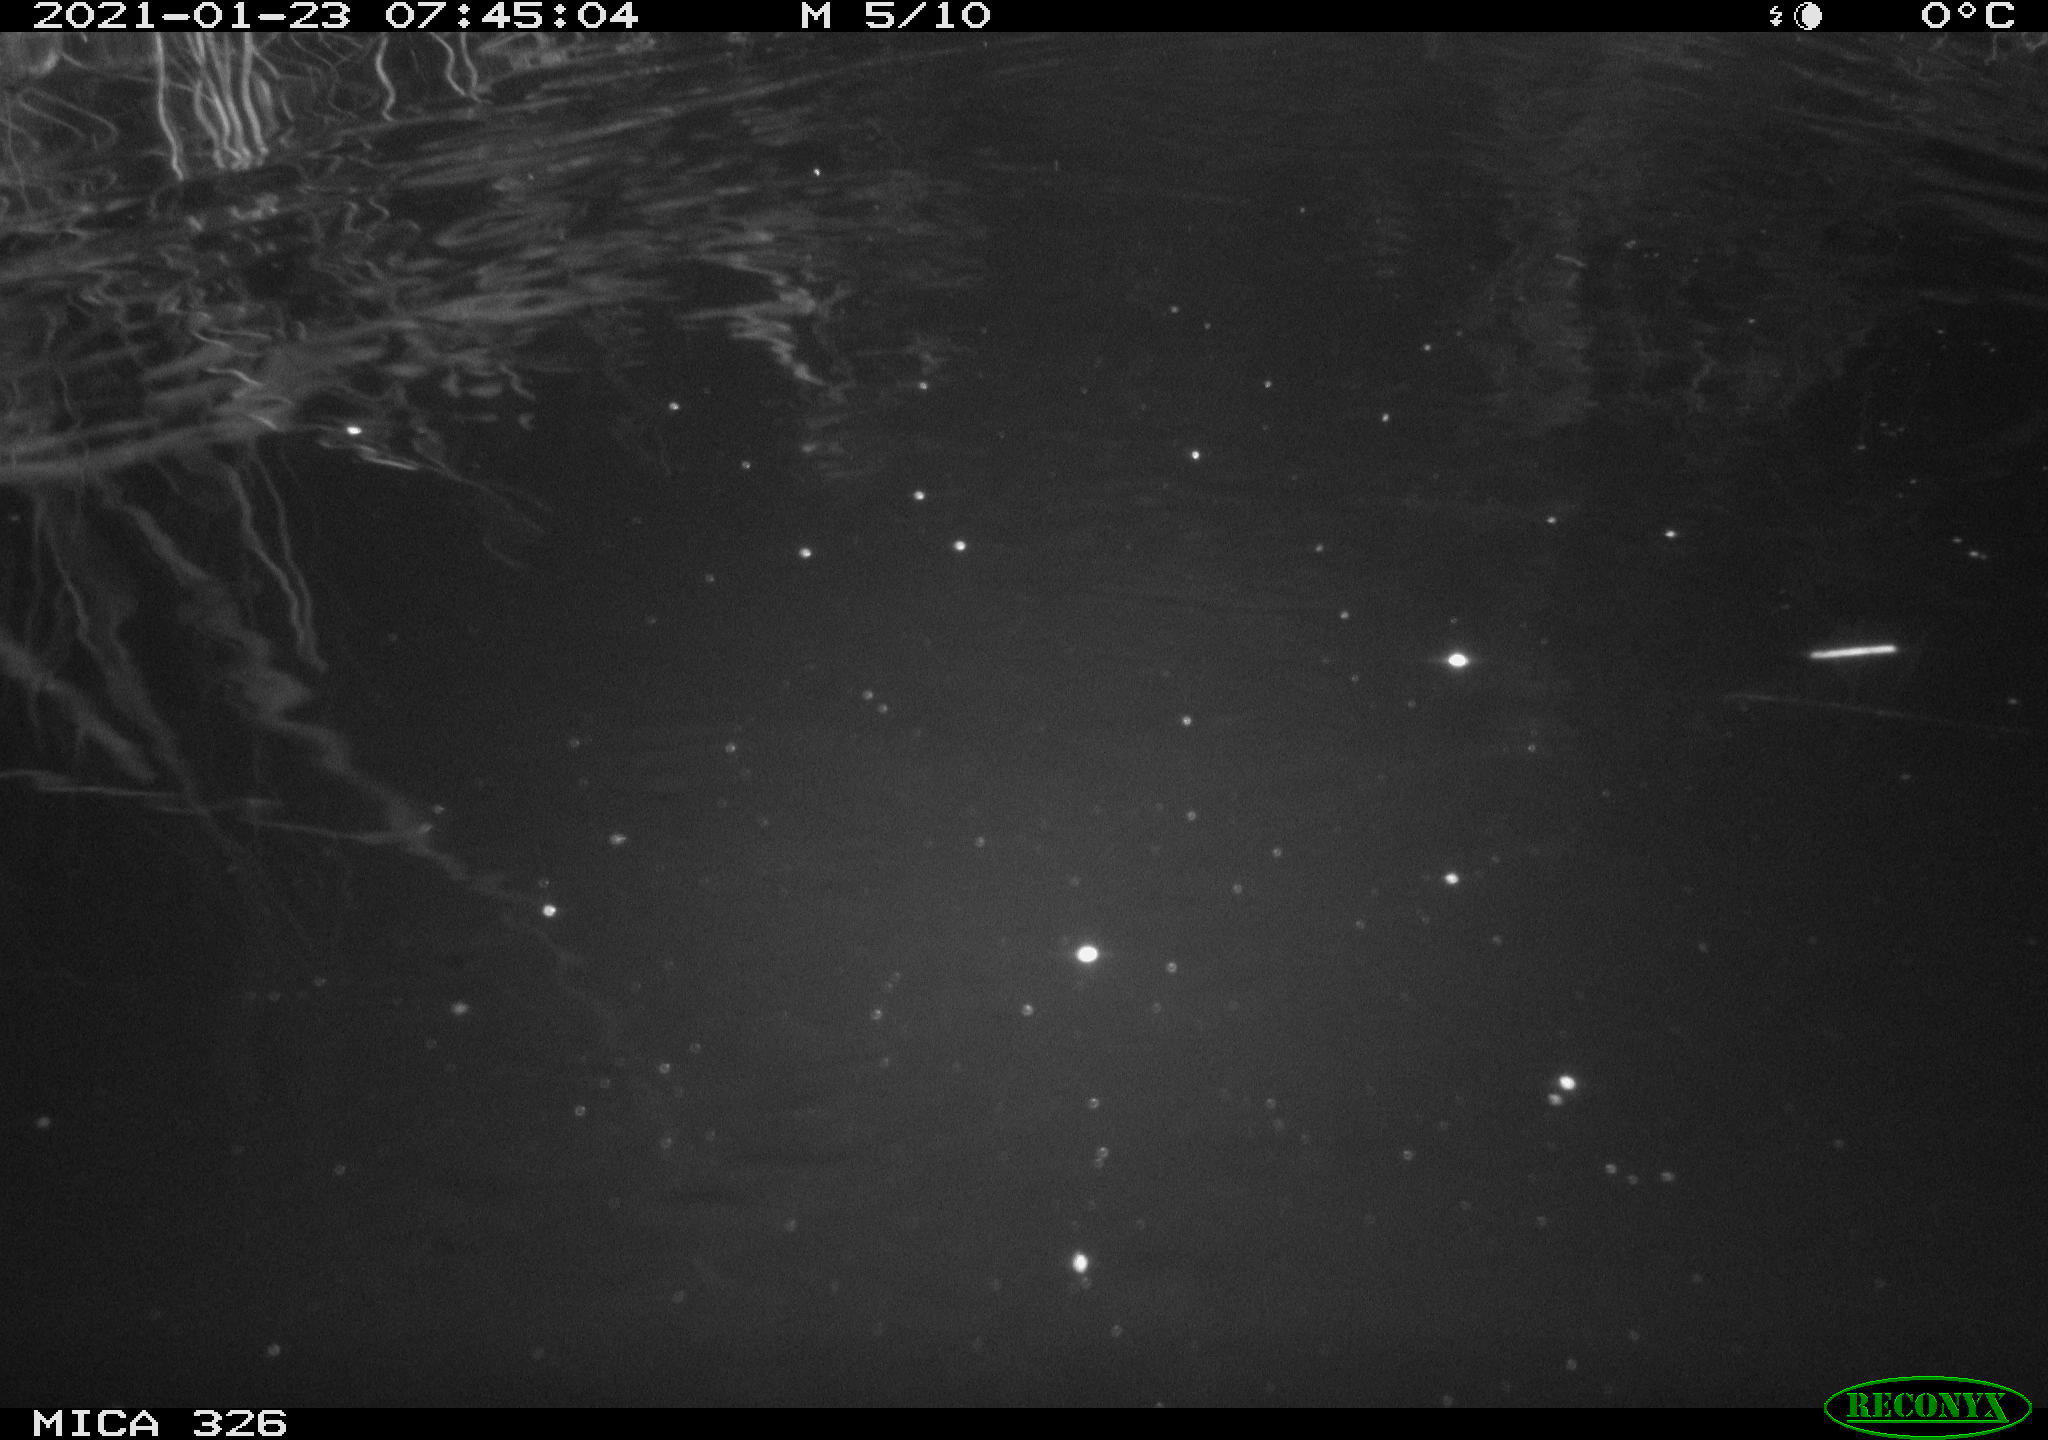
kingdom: Animalia
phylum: Chordata
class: Mammalia
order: Rodentia
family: Myocastoridae
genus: Myocastor
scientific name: Myocastor coypus
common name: Coypu
